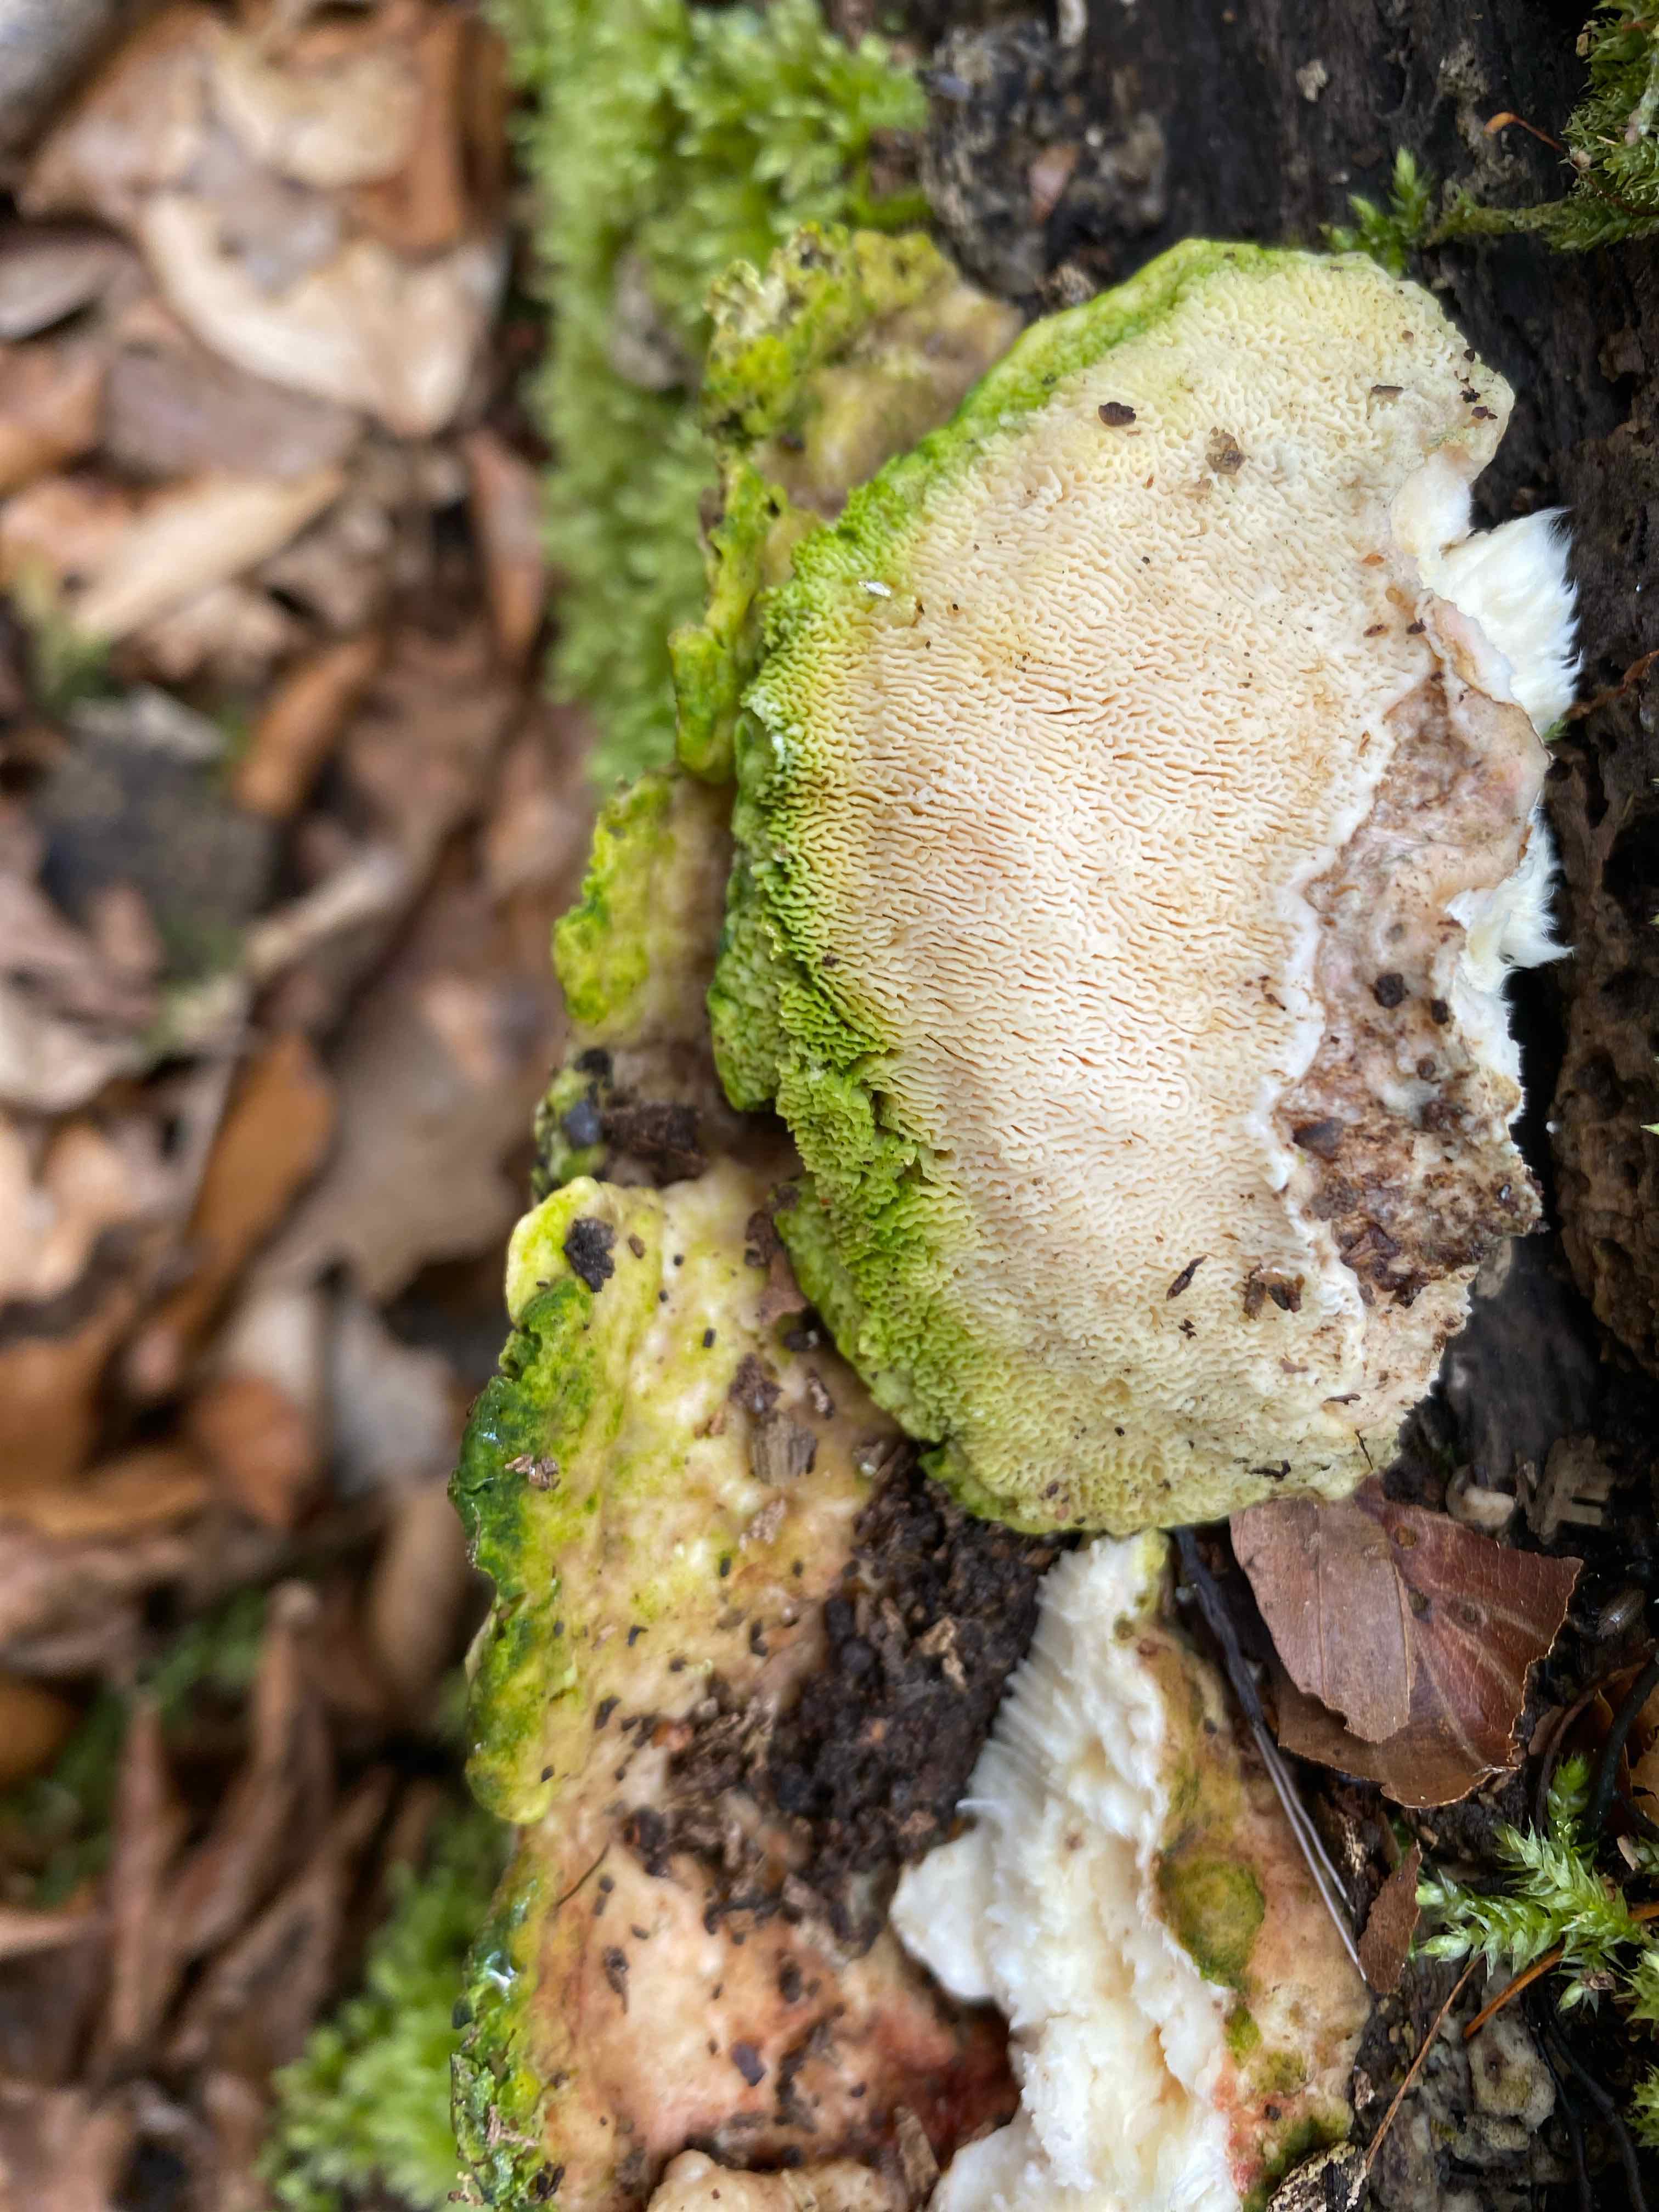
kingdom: Fungi
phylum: Basidiomycota
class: Agaricomycetes
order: Polyporales
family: Polyporaceae
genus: Trametes
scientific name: Trametes gibbosa
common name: puklet læderporesvamp
